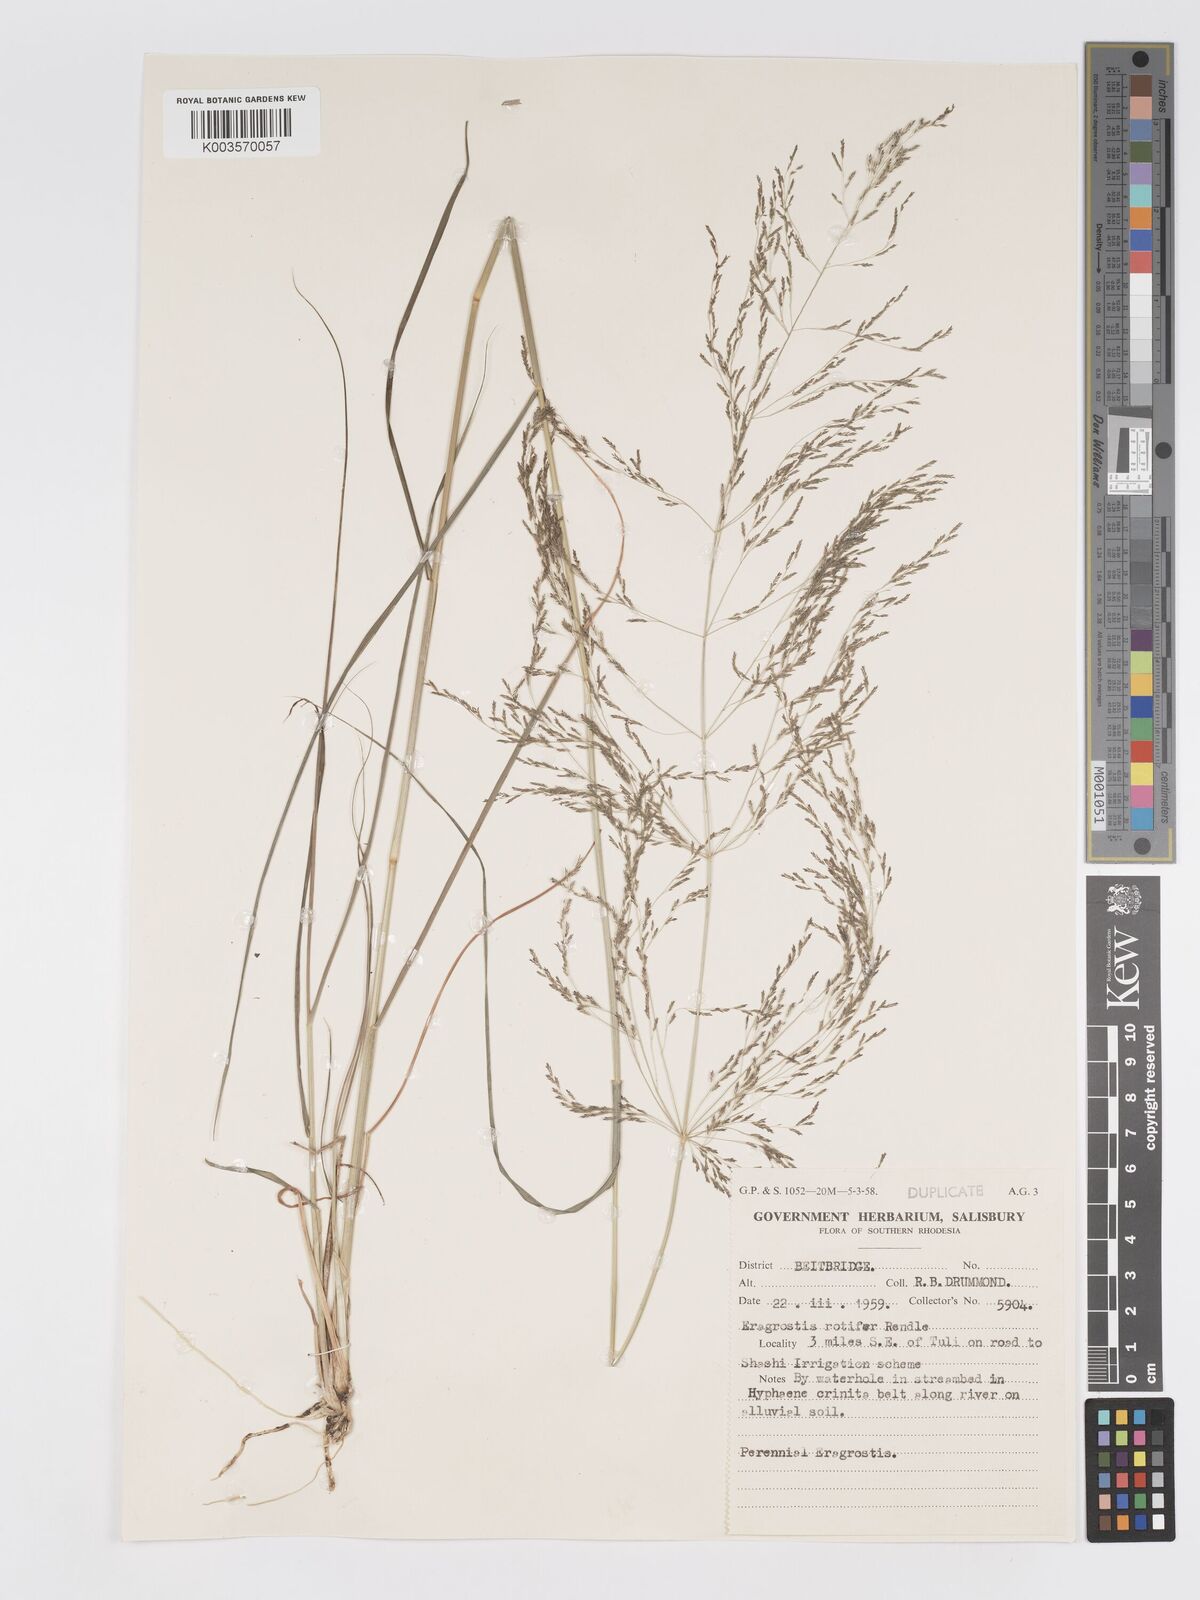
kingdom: Plantae
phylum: Tracheophyta
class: Liliopsida
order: Poales
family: Poaceae
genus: Eragrostis
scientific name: Eragrostis rotifer
